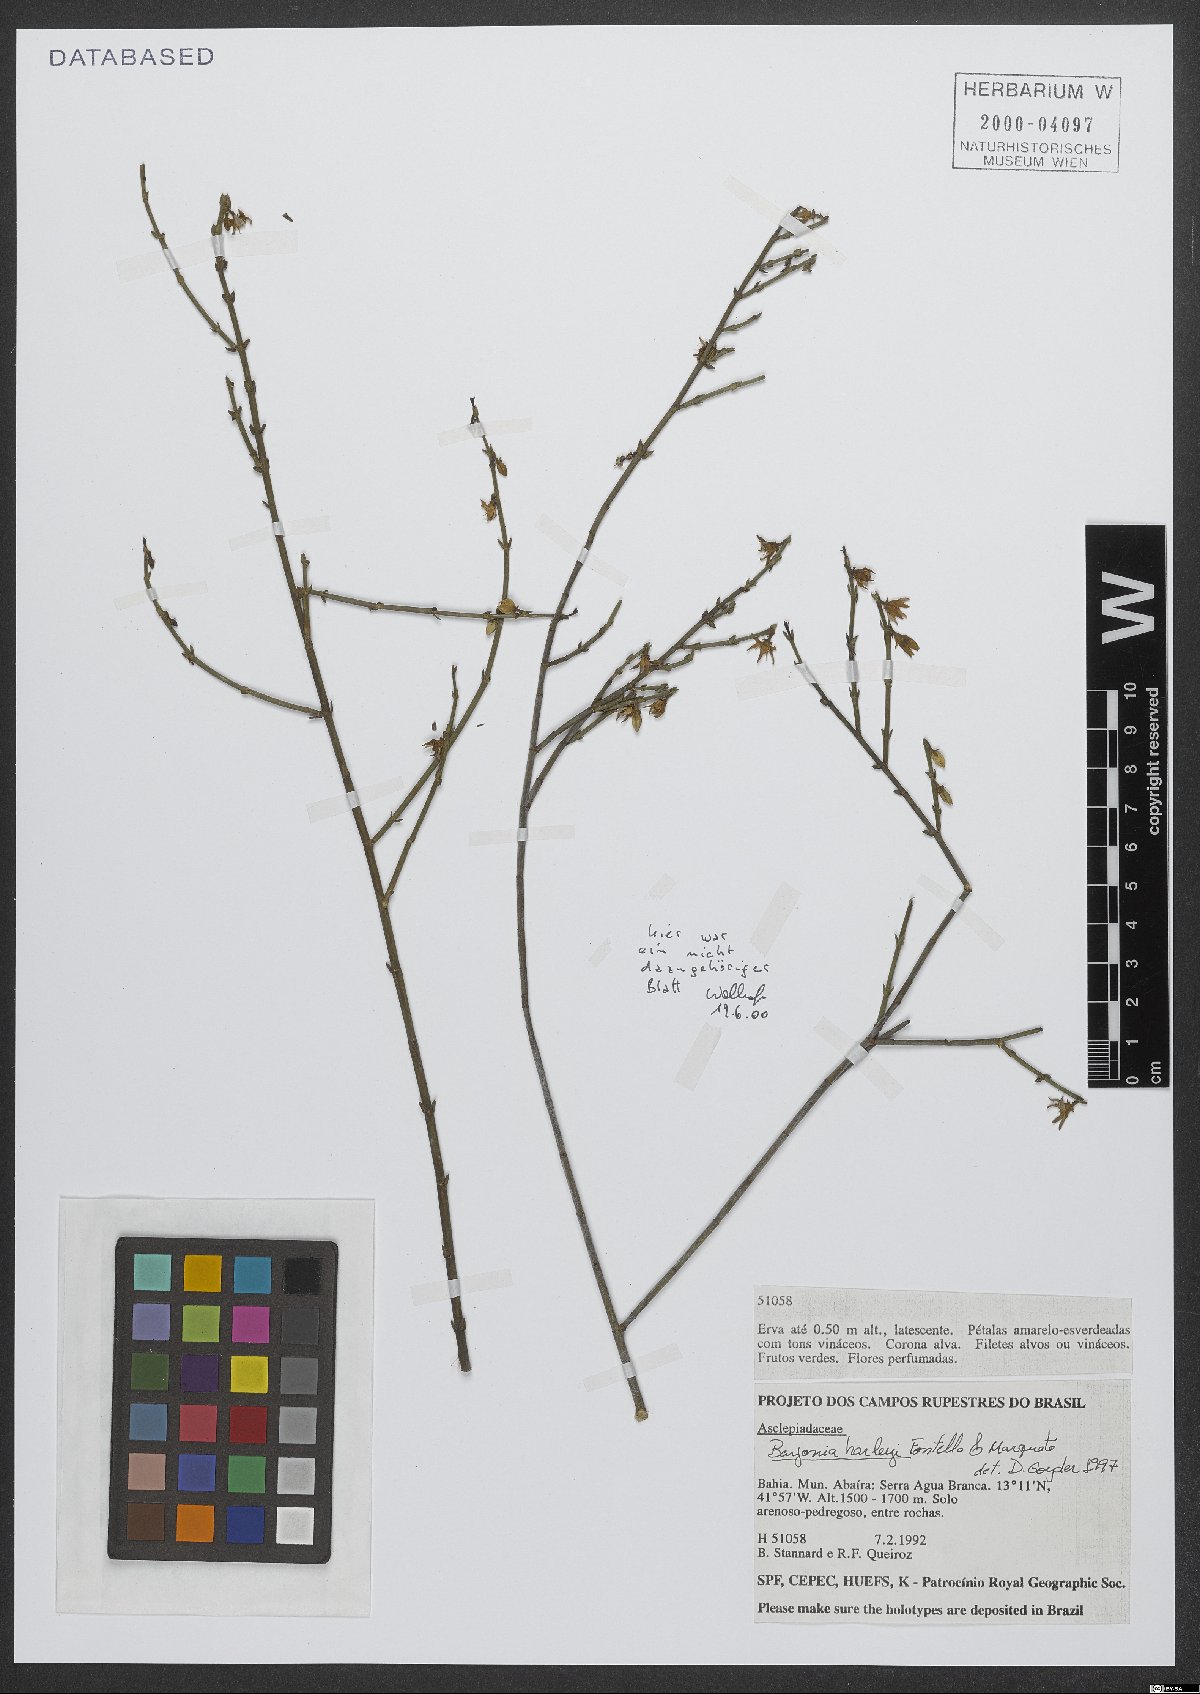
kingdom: Plantae
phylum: Tracheophyta
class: Magnoliopsida
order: Gentianales
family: Apocynaceae
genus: Minaria
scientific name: Minaria harleyi
